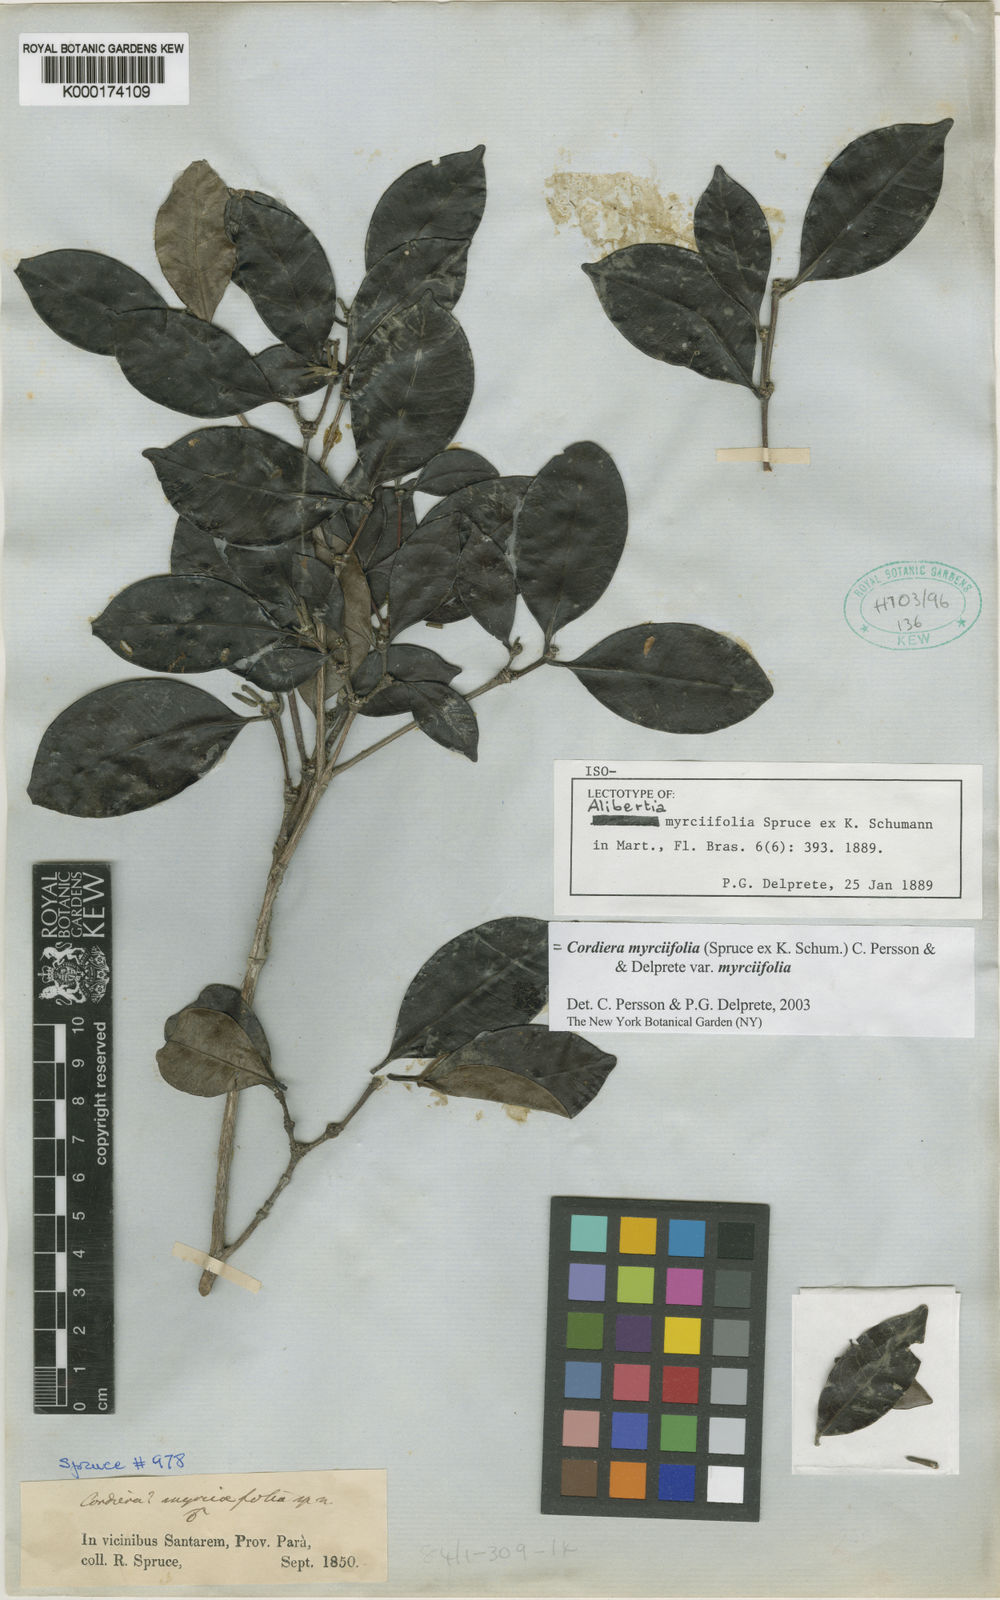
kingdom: Plantae
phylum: Tracheophyta
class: Magnoliopsida
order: Gentianales
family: Rubiaceae
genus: Cordiera
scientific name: Cordiera
